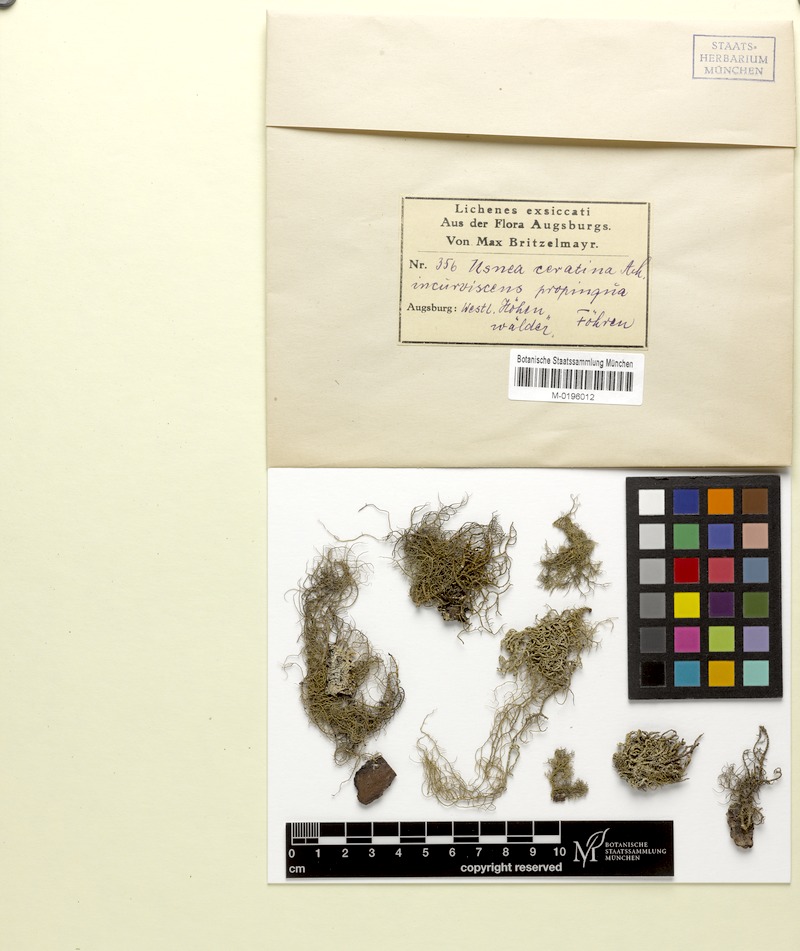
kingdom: Fungi
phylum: Ascomycota
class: Lecanoromycetes
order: Lecanorales
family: Parmeliaceae
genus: Usnea
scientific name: Usnea ceratina
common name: Warty beard lichen
